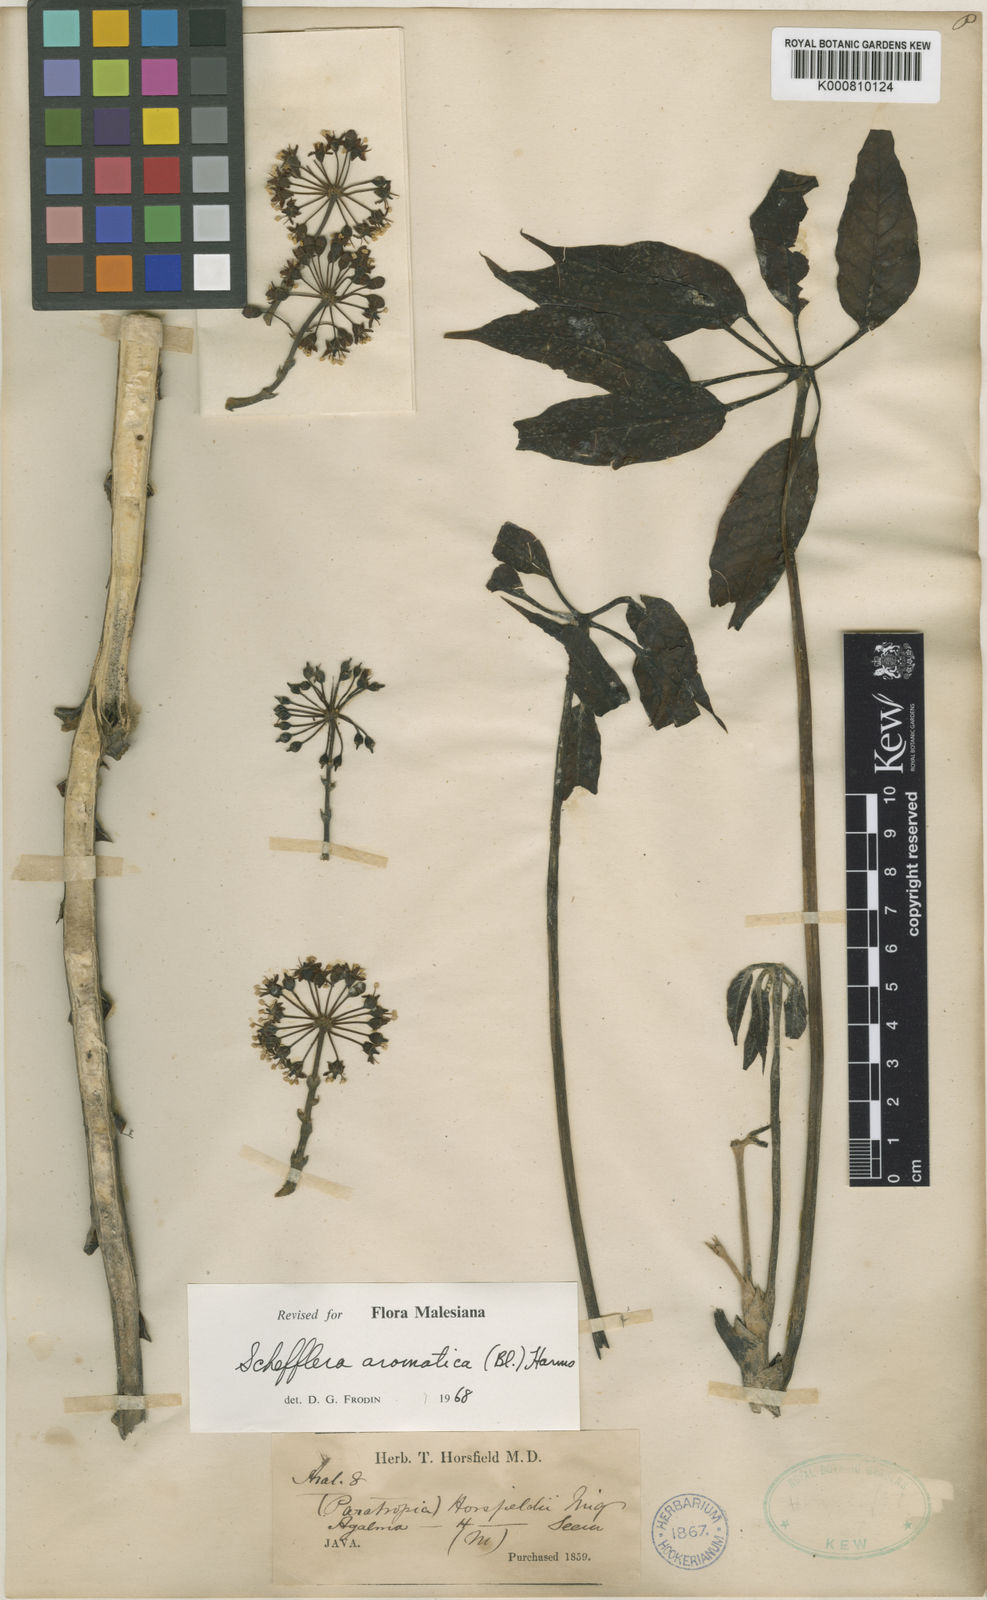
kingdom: Plantae
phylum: Tracheophyta
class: Magnoliopsida
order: Apiales
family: Araliaceae
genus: Heptapleurum
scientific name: Heptapleurum aromaticum
